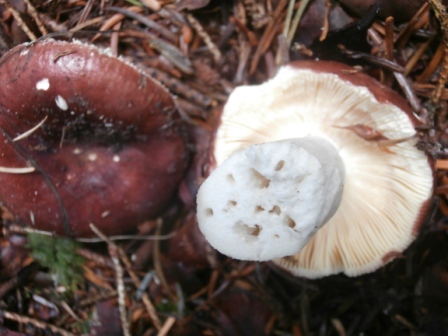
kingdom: Fungi
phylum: Basidiomycota
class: Agaricomycetes
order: Russulales
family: Russulaceae
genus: Russula
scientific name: Russula integra
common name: mandel-skørhat
